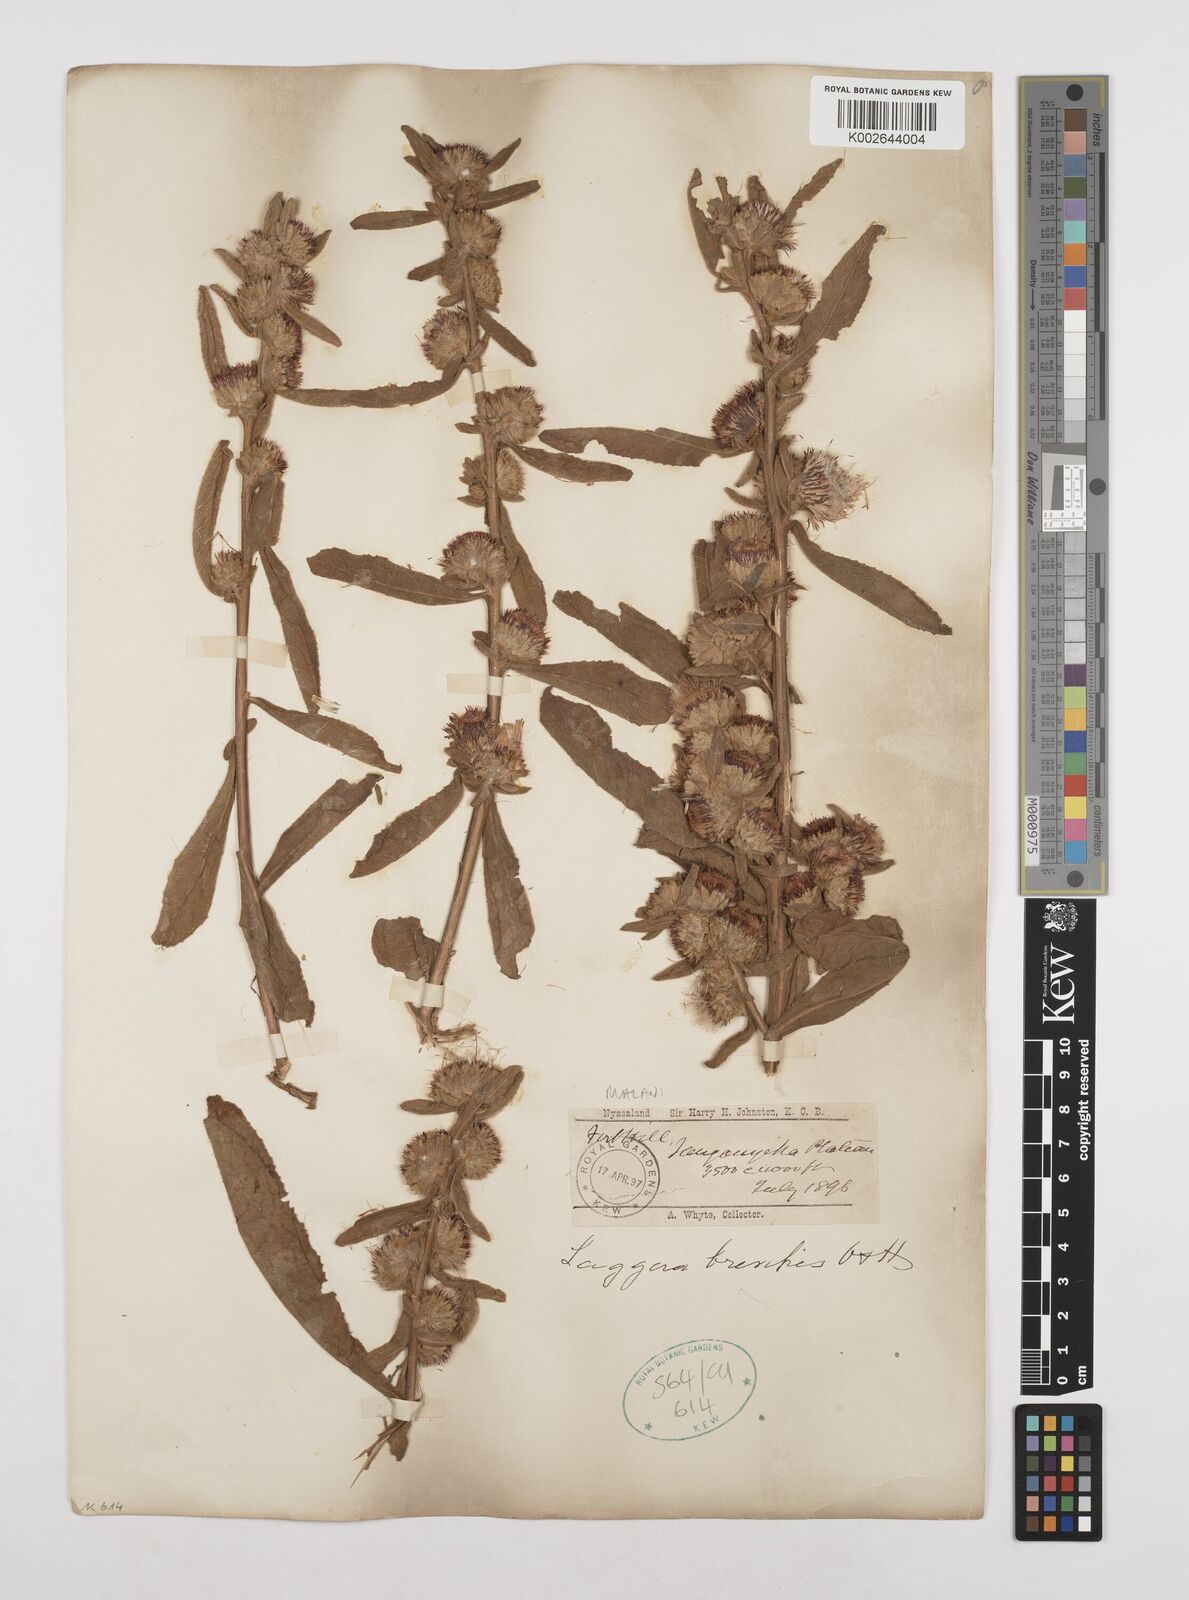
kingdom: Plantae
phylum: Tracheophyta
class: Magnoliopsida
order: Asterales
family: Asteraceae
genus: Laggera
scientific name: Laggera brevipes
